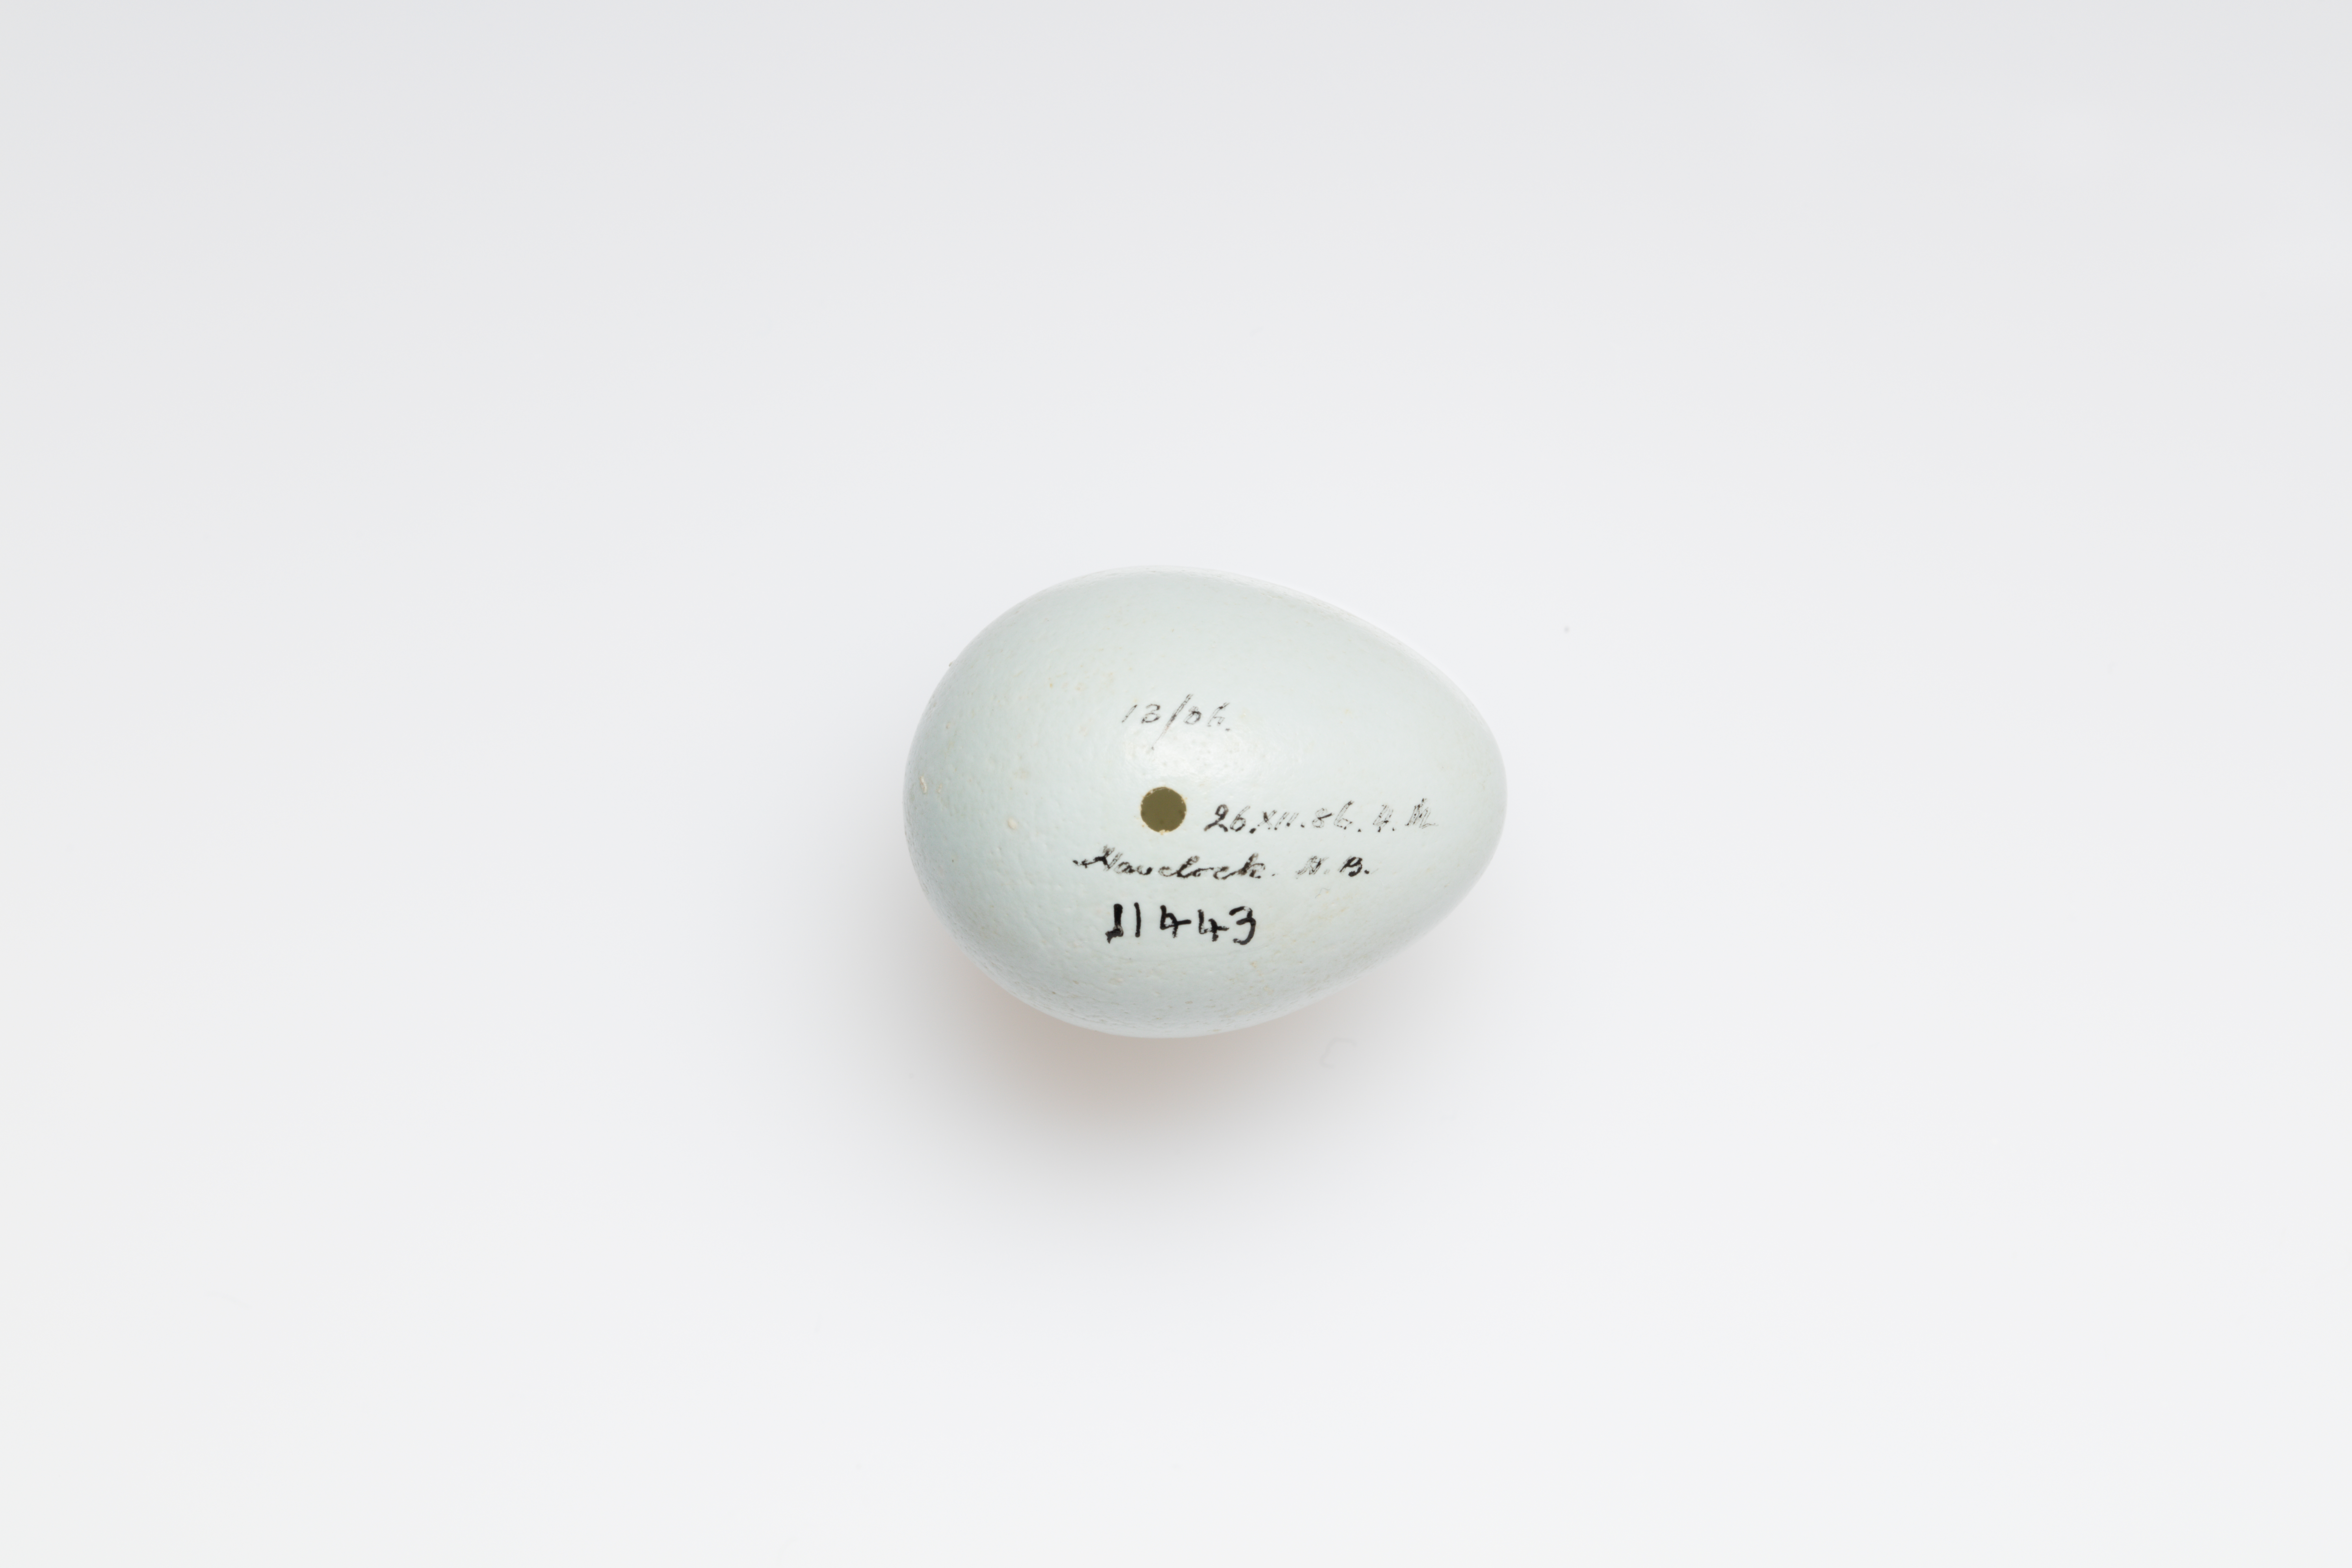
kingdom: Animalia
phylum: Chordata
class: Aves
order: Passeriformes
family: Sturnidae
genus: Sturnus
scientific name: Sturnus vulgaris
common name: Common starling
